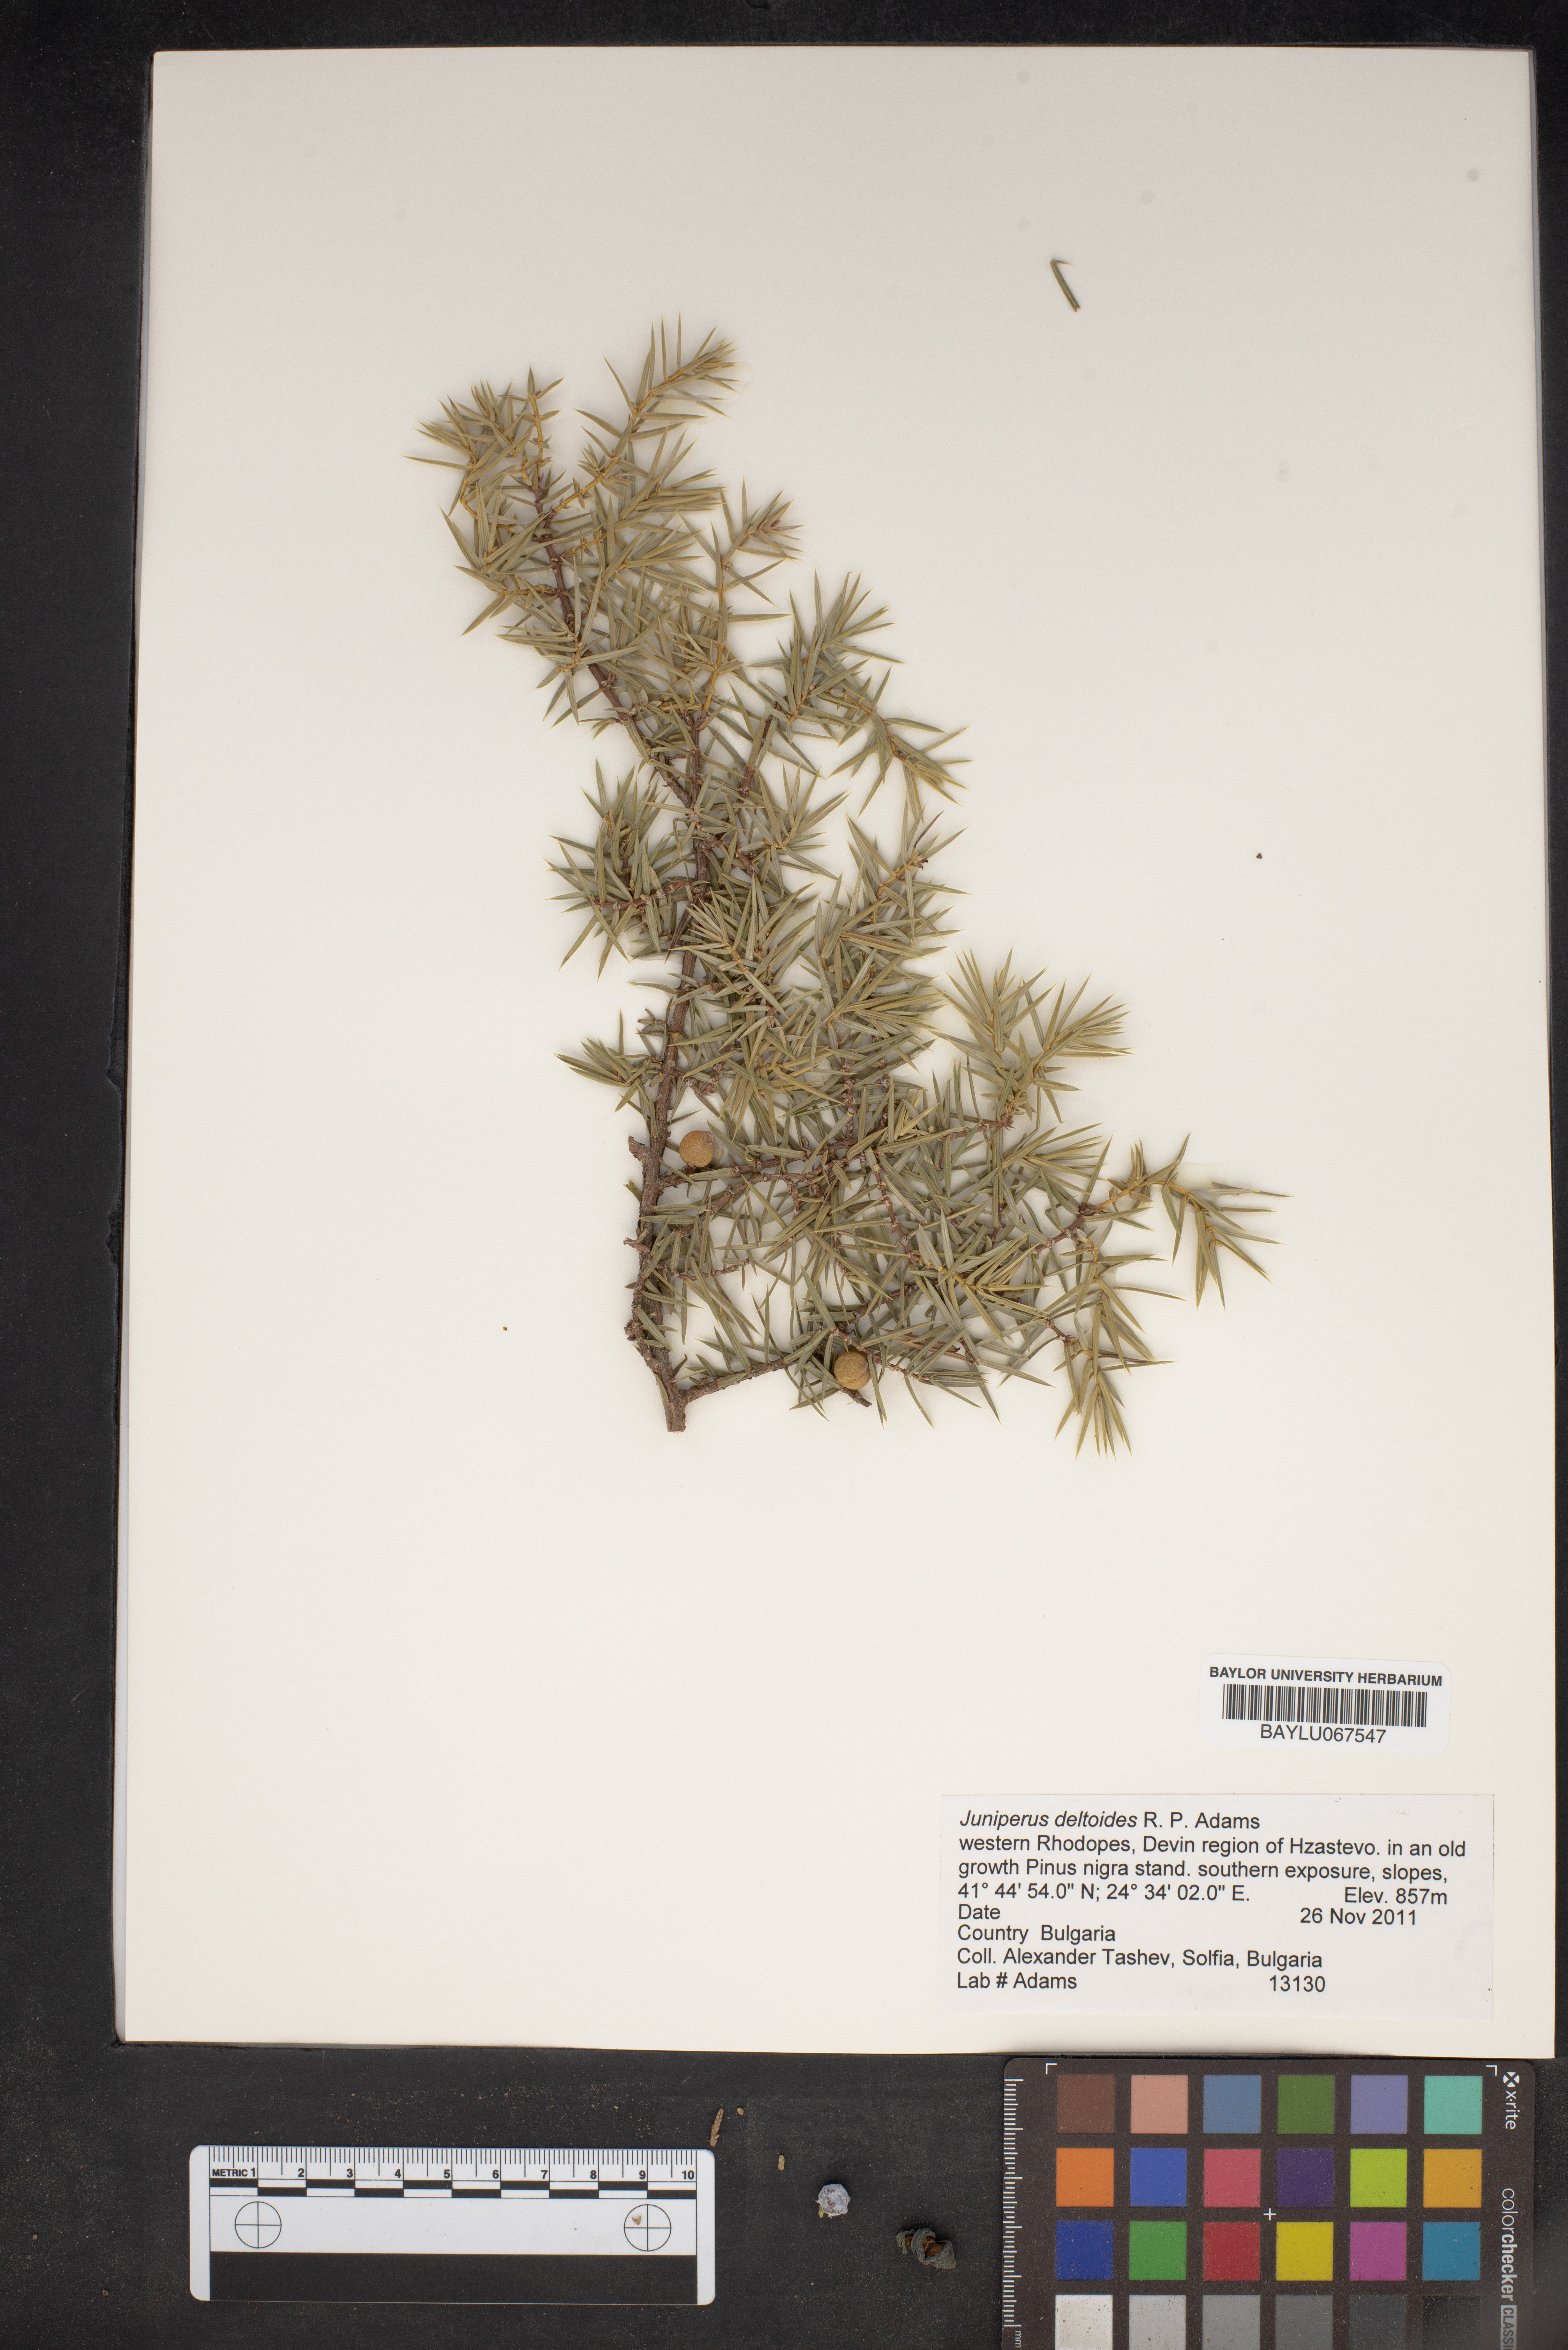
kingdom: Plantae
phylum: Tracheophyta
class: Pinopsida
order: Pinales
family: Cupressaceae
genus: Juniperus
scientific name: Juniperus oxycedrus
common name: Prickly juniper
